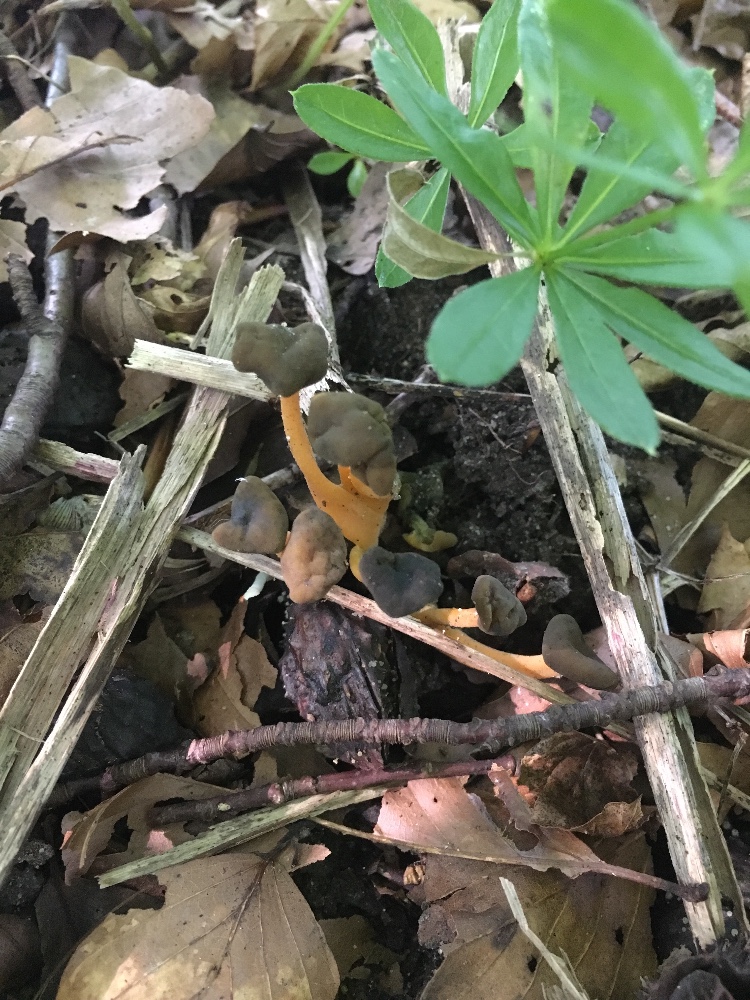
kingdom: Fungi
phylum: Ascomycota
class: Leotiomycetes
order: Leotiales
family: Leotiaceae
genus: Leotia
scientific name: Leotia lubrica
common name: ravsvamp
